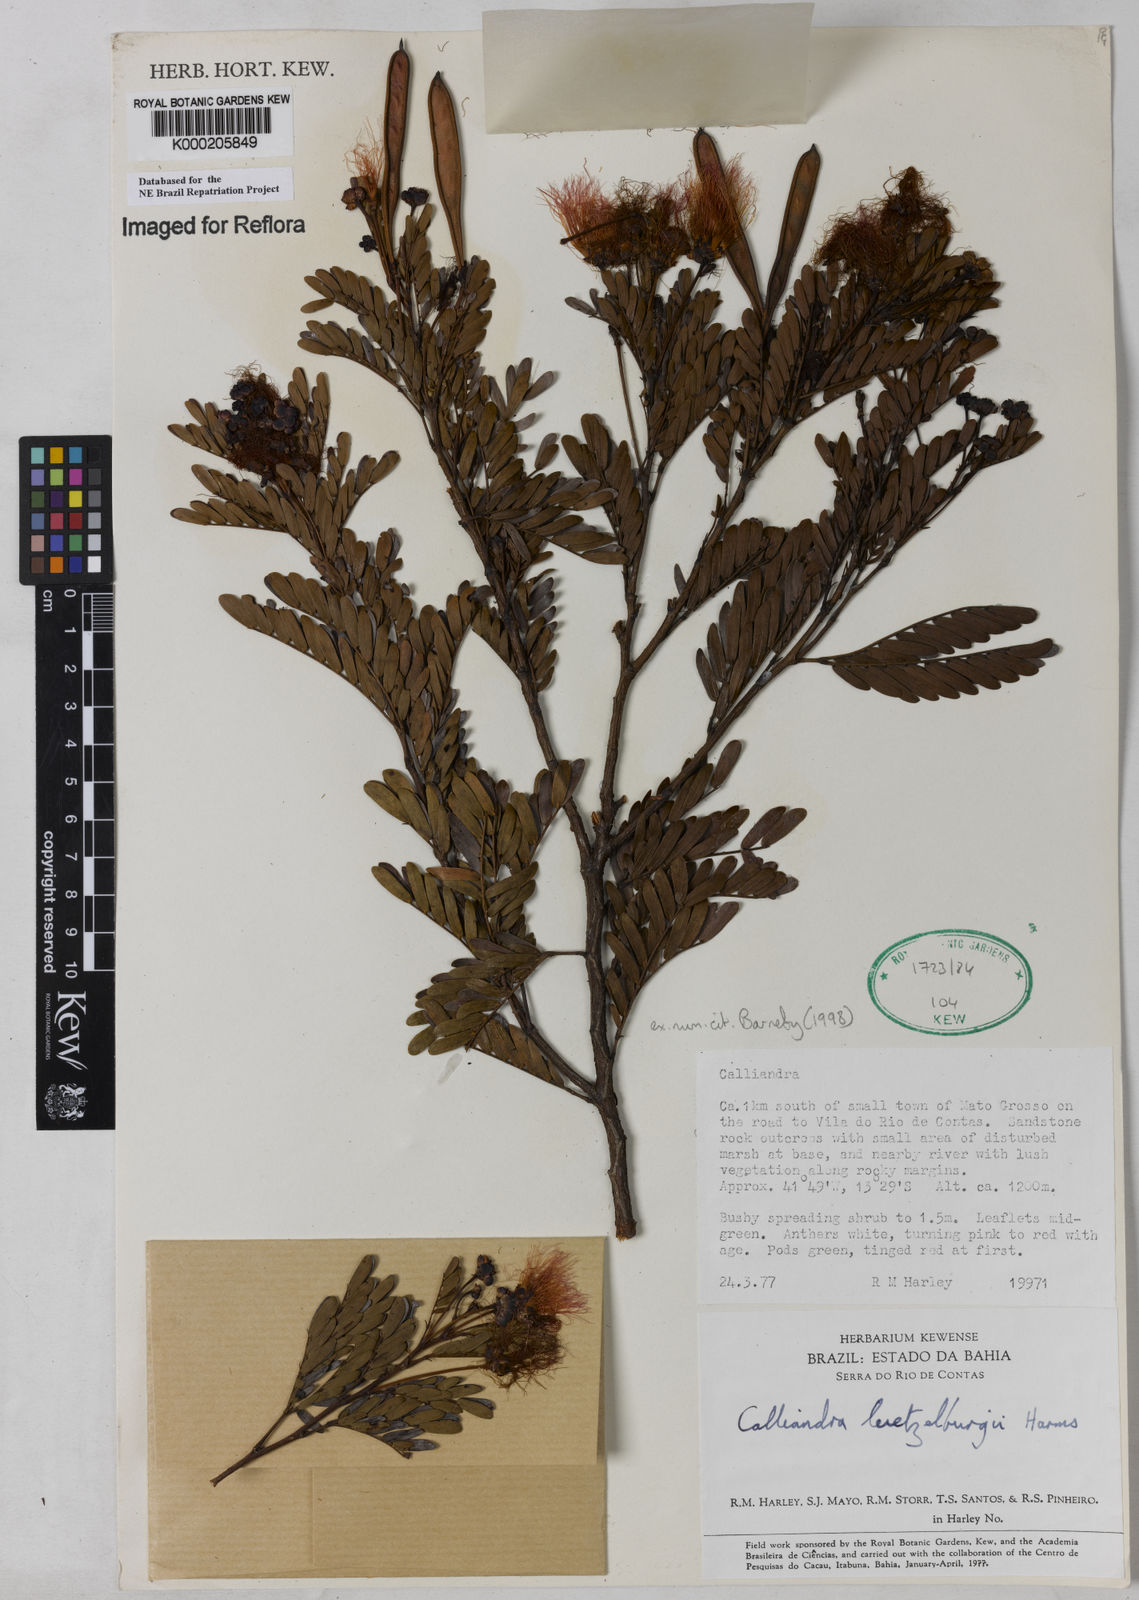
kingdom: Plantae
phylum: Tracheophyta
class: Magnoliopsida
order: Fabales
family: Fabaceae
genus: Calliandra
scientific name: Calliandra luetzelburgii
